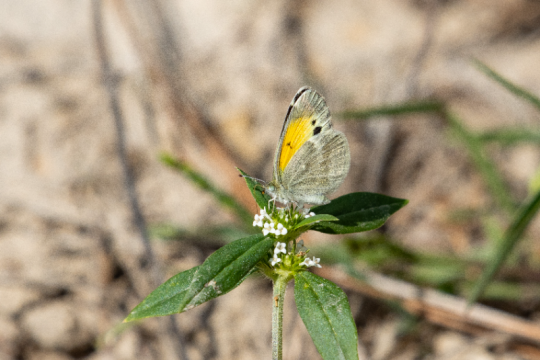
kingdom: Animalia
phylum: Arthropoda
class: Insecta
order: Lepidoptera
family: Pieridae
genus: Nathalis
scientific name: Nathalis iole
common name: Dainty Sulphur
